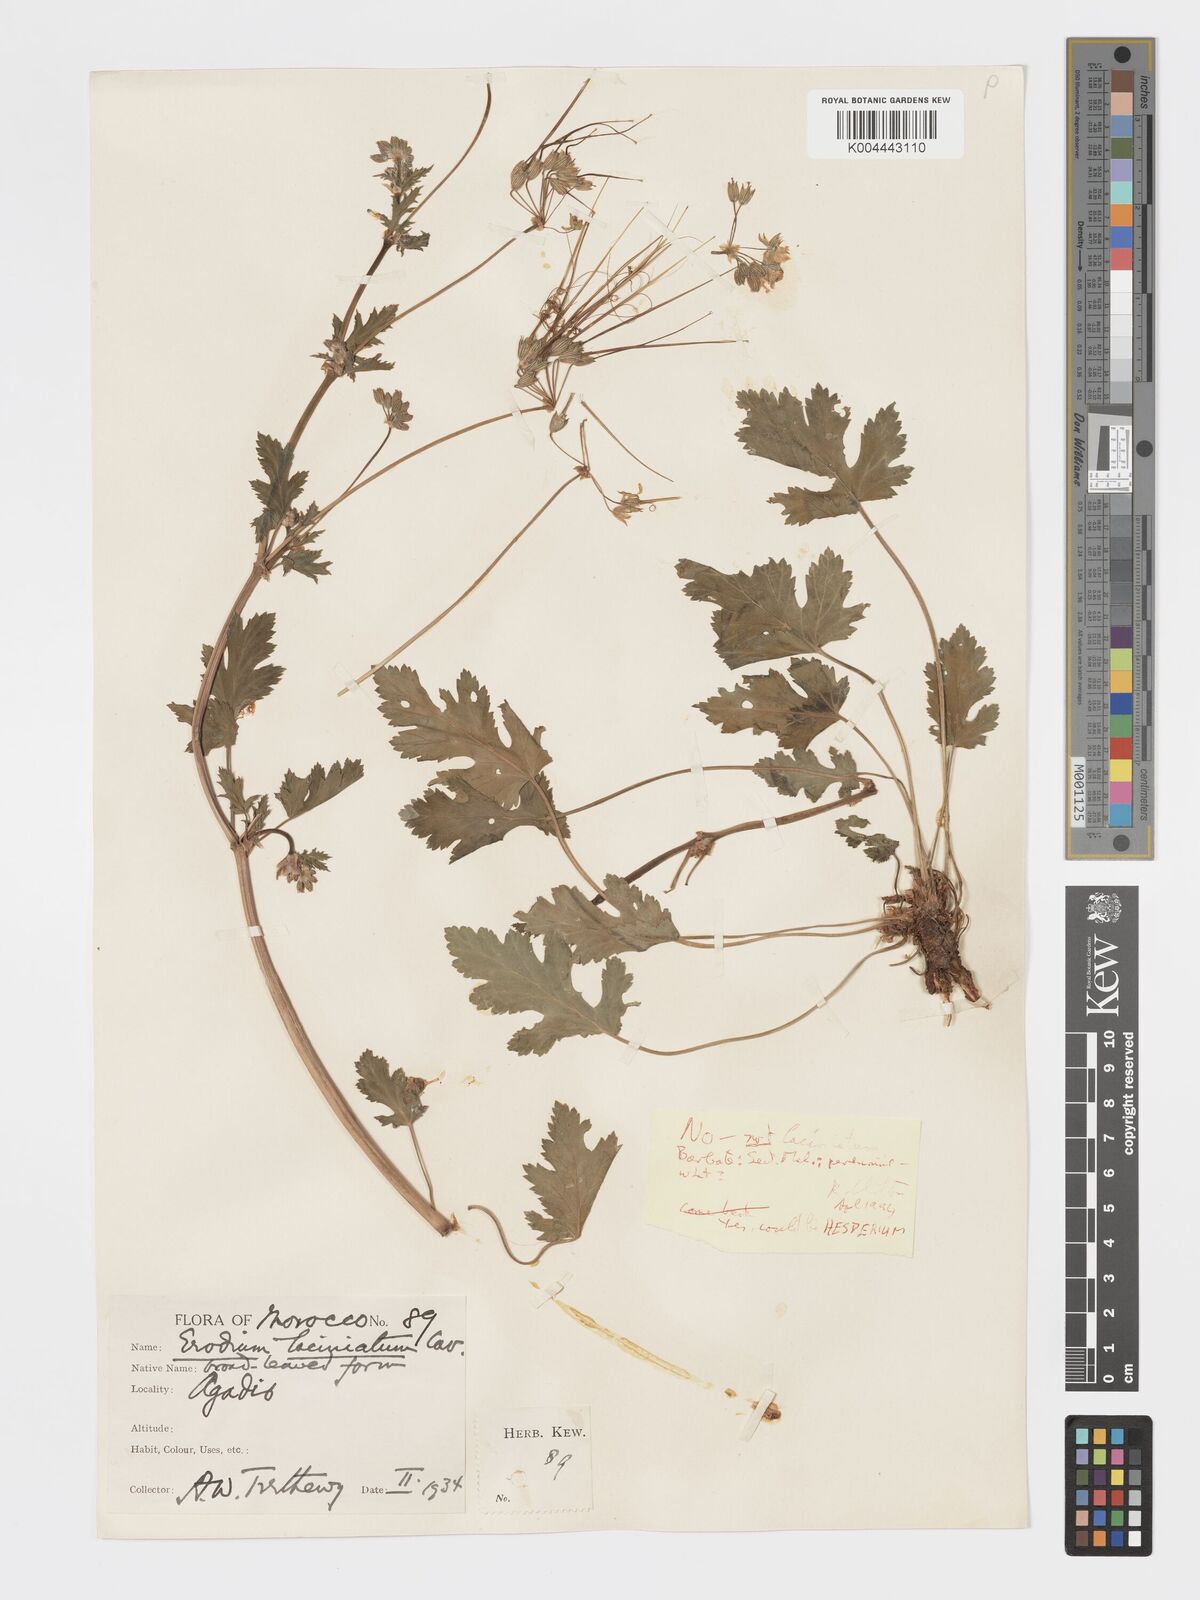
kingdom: Plantae
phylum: Tracheophyta
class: Magnoliopsida
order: Geraniales
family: Geraniaceae
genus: Erodium
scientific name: Erodium hesperium
